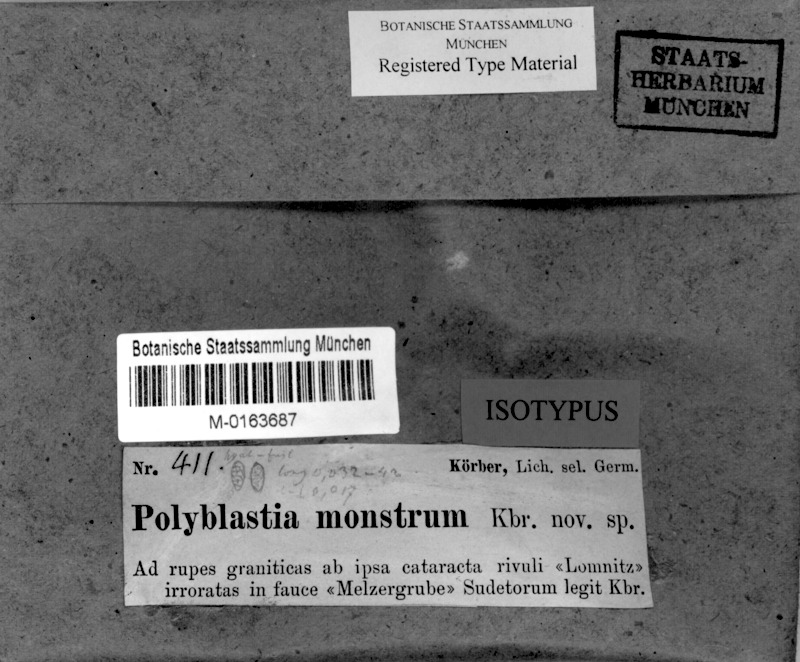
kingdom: Fungi
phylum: Ascomycota
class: Eurotiomycetes
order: Verrucariales
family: Verrucariaceae
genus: Polyblastia
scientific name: Polyblastia
